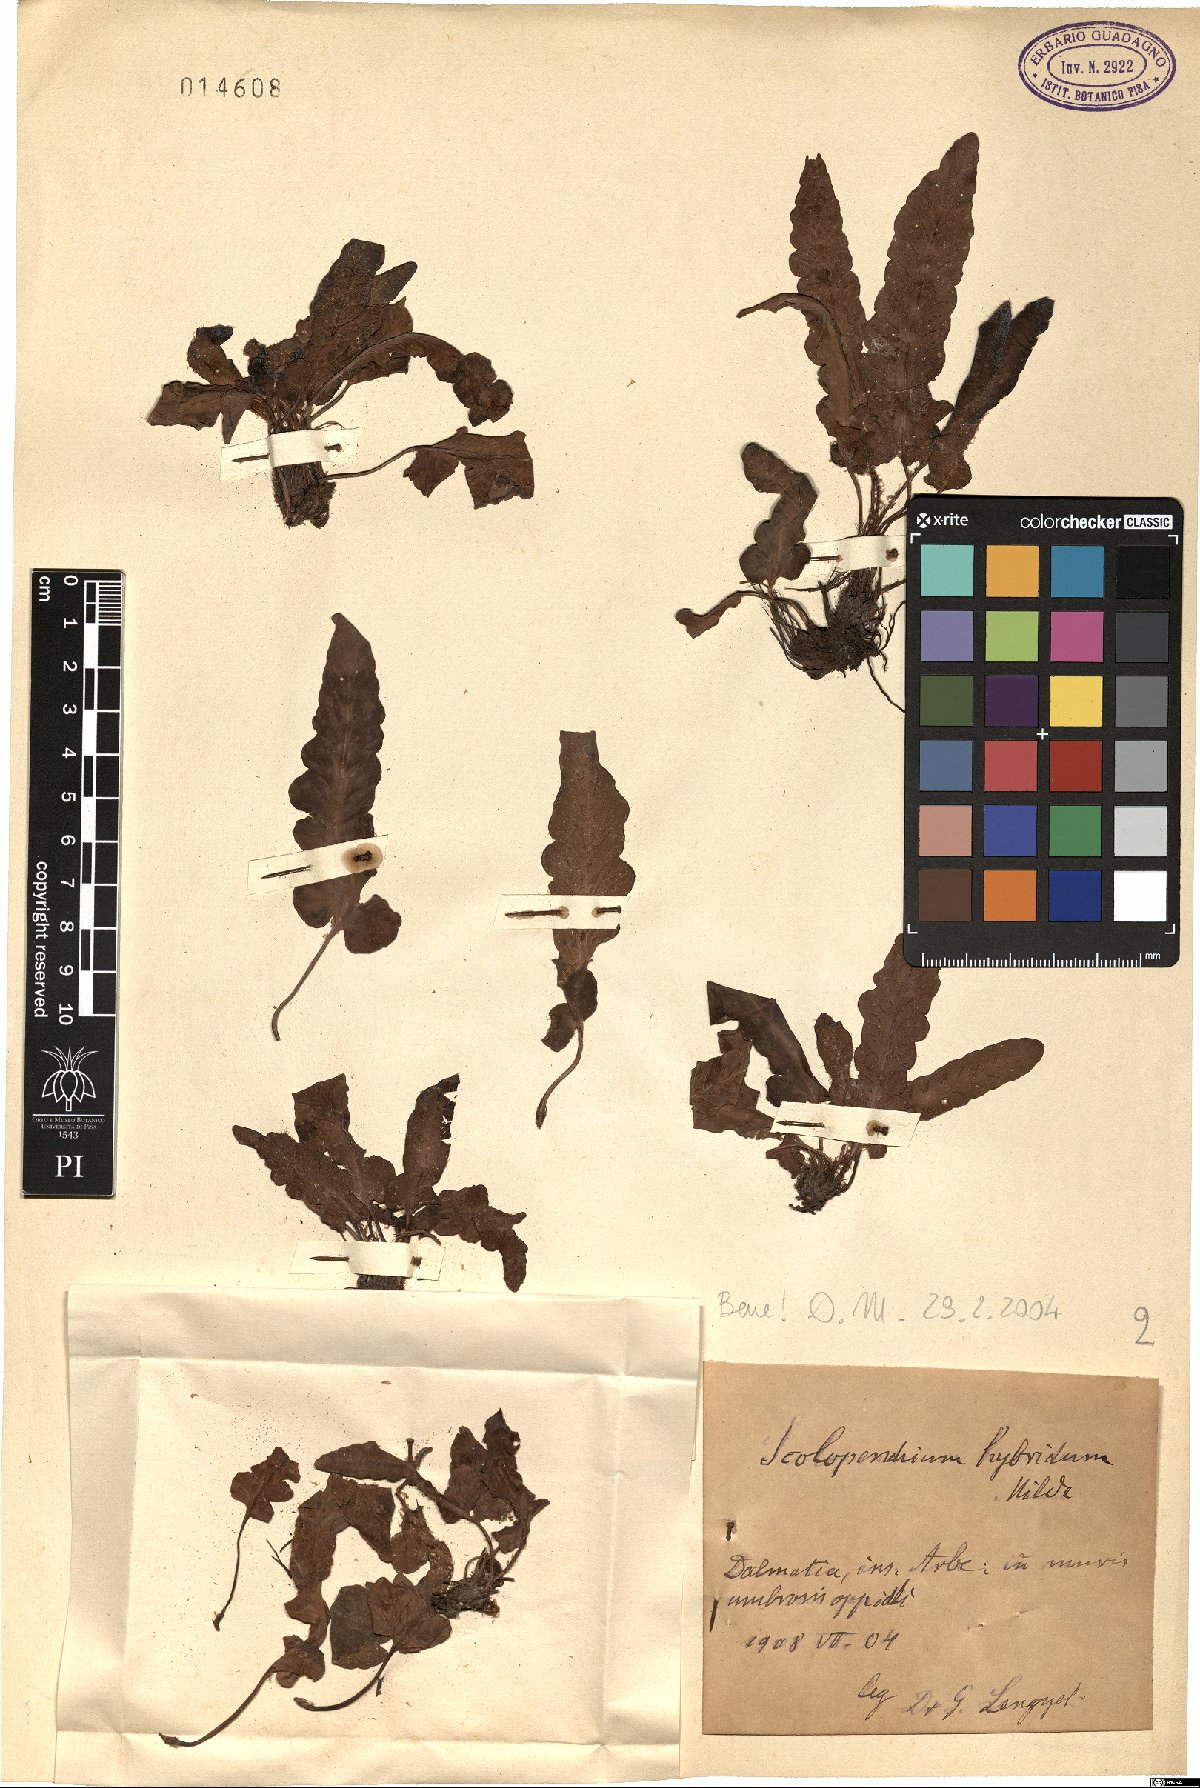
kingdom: Plantae
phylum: Tracheophyta
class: Polypodiopsida
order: Polypodiales
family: Aspleniaceae
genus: Asplenium
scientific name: Asplenium hybridum
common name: Dalmatian spleenwort
